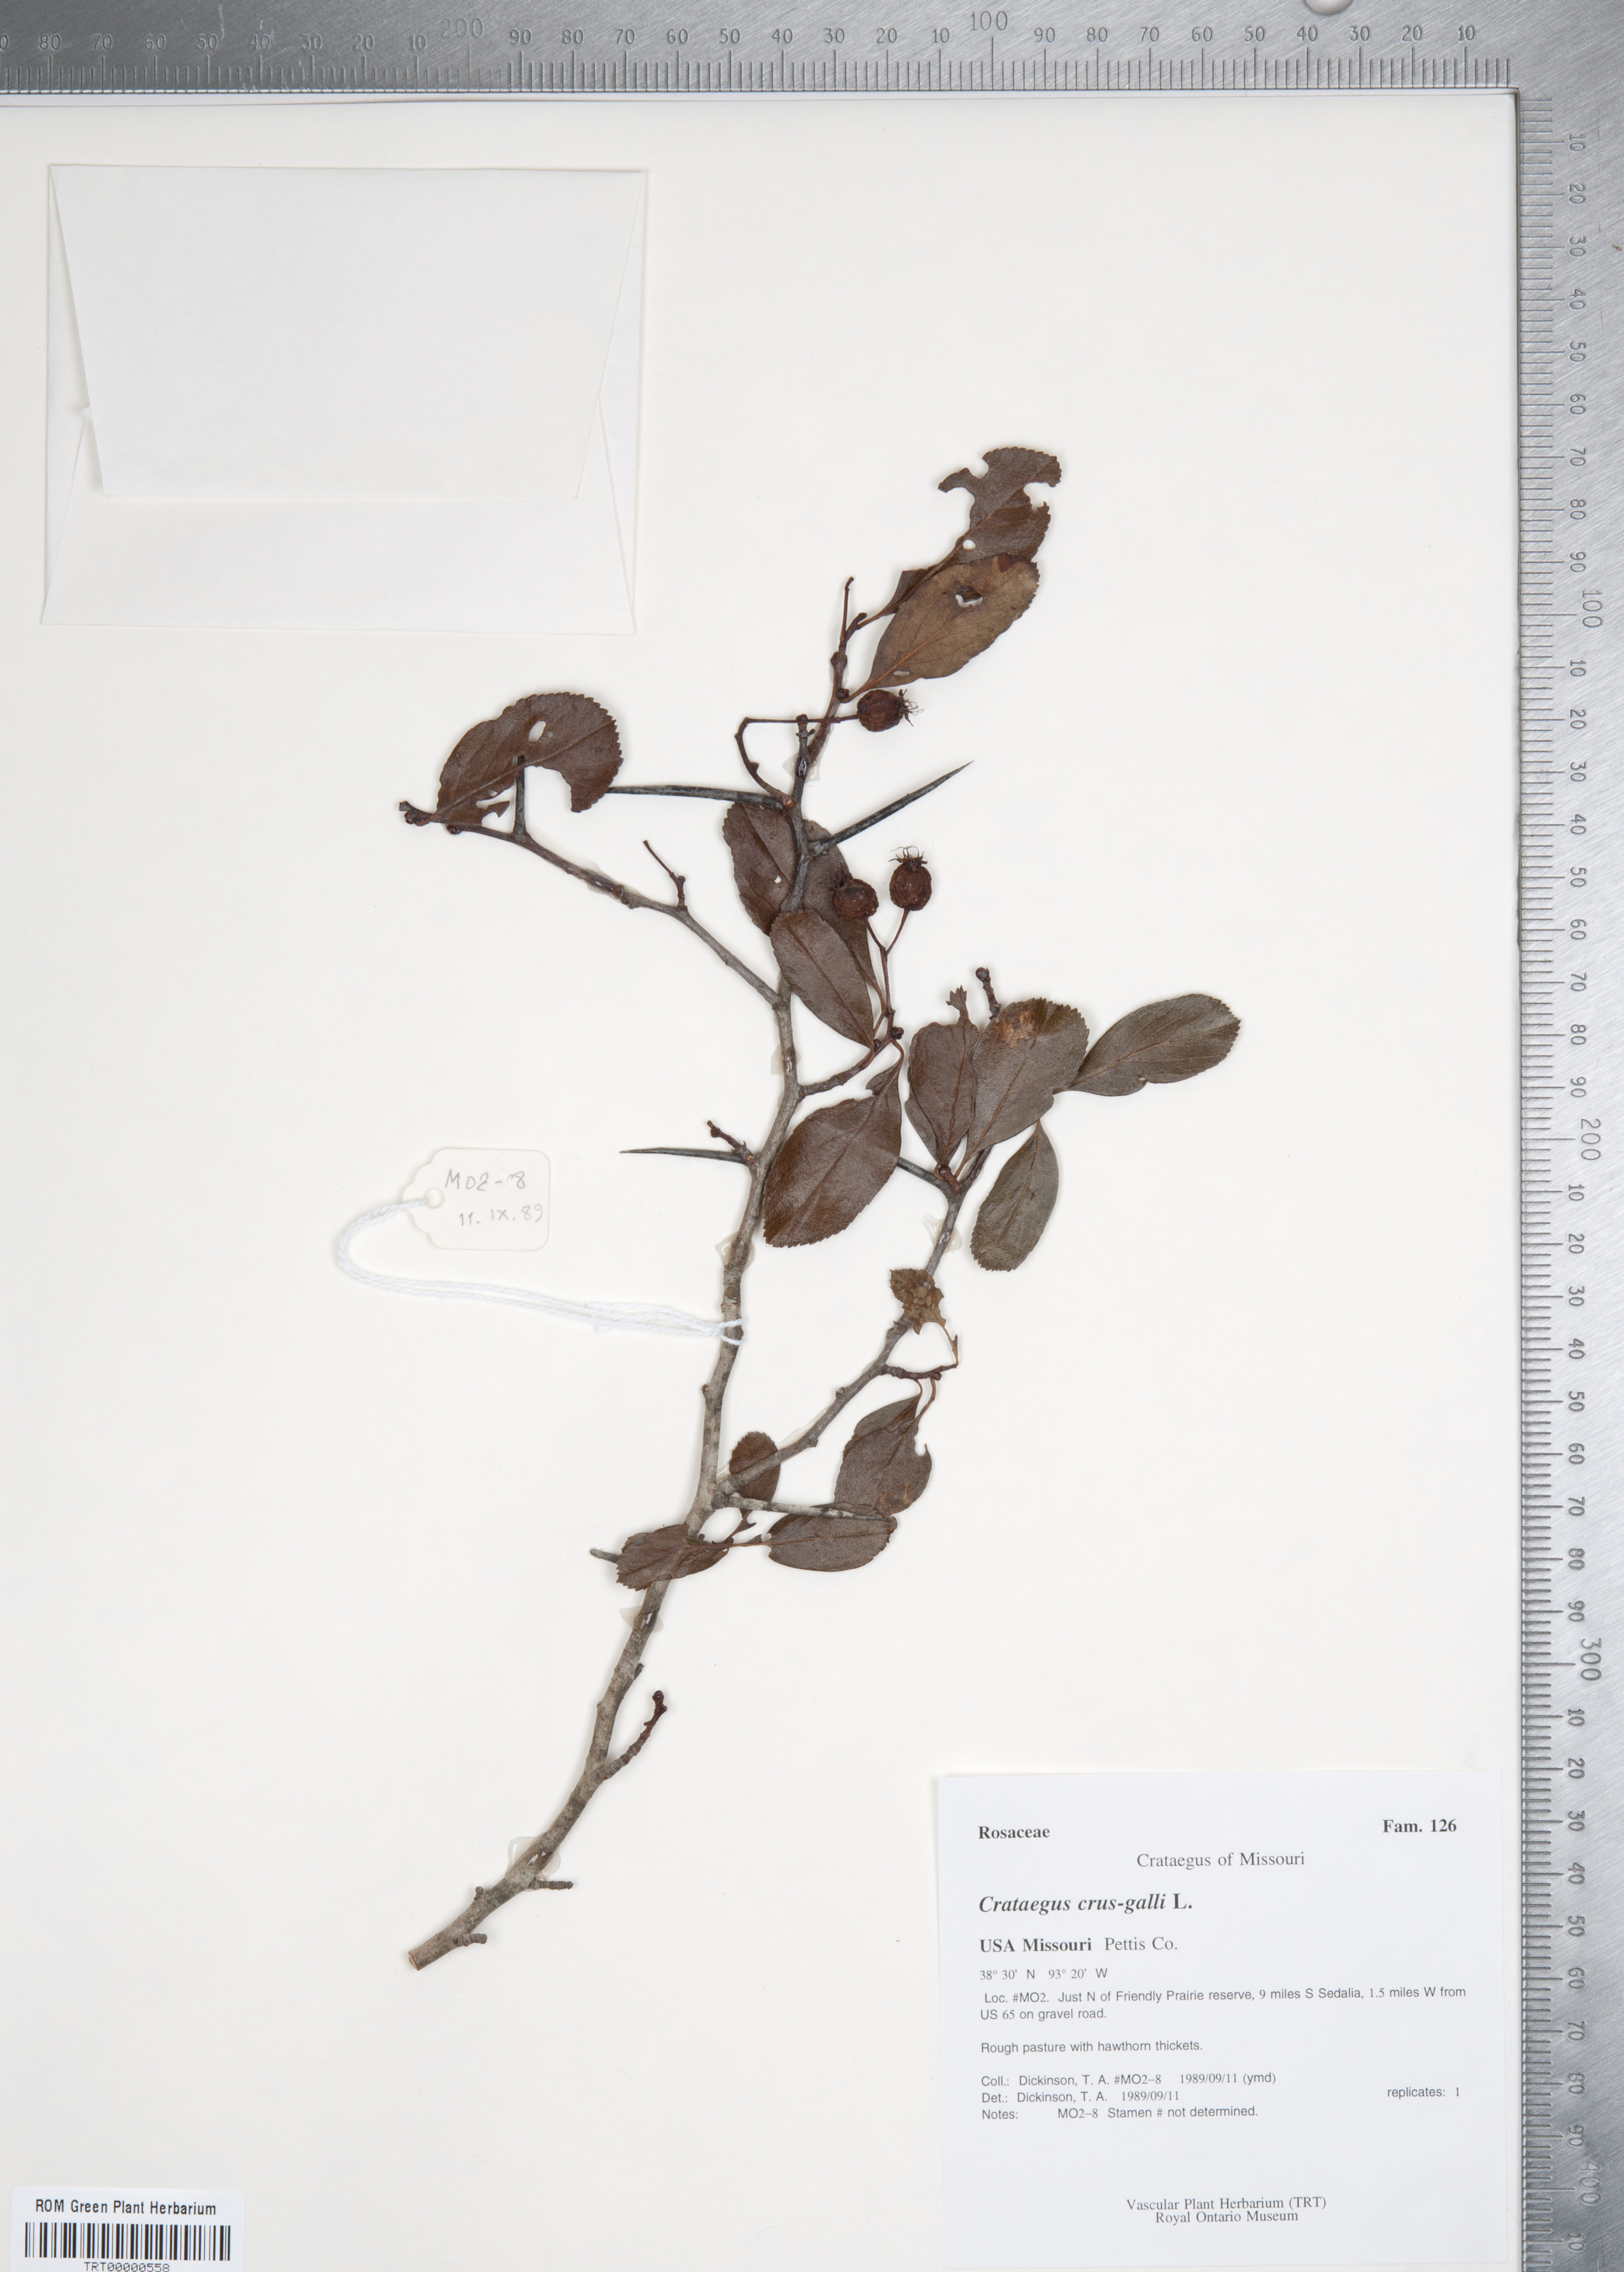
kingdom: Plantae
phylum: Tracheophyta
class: Magnoliopsida
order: Rosales
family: Rosaceae
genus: Crataegus
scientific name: Crataegus crus-galli
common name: Cockspurthorn
